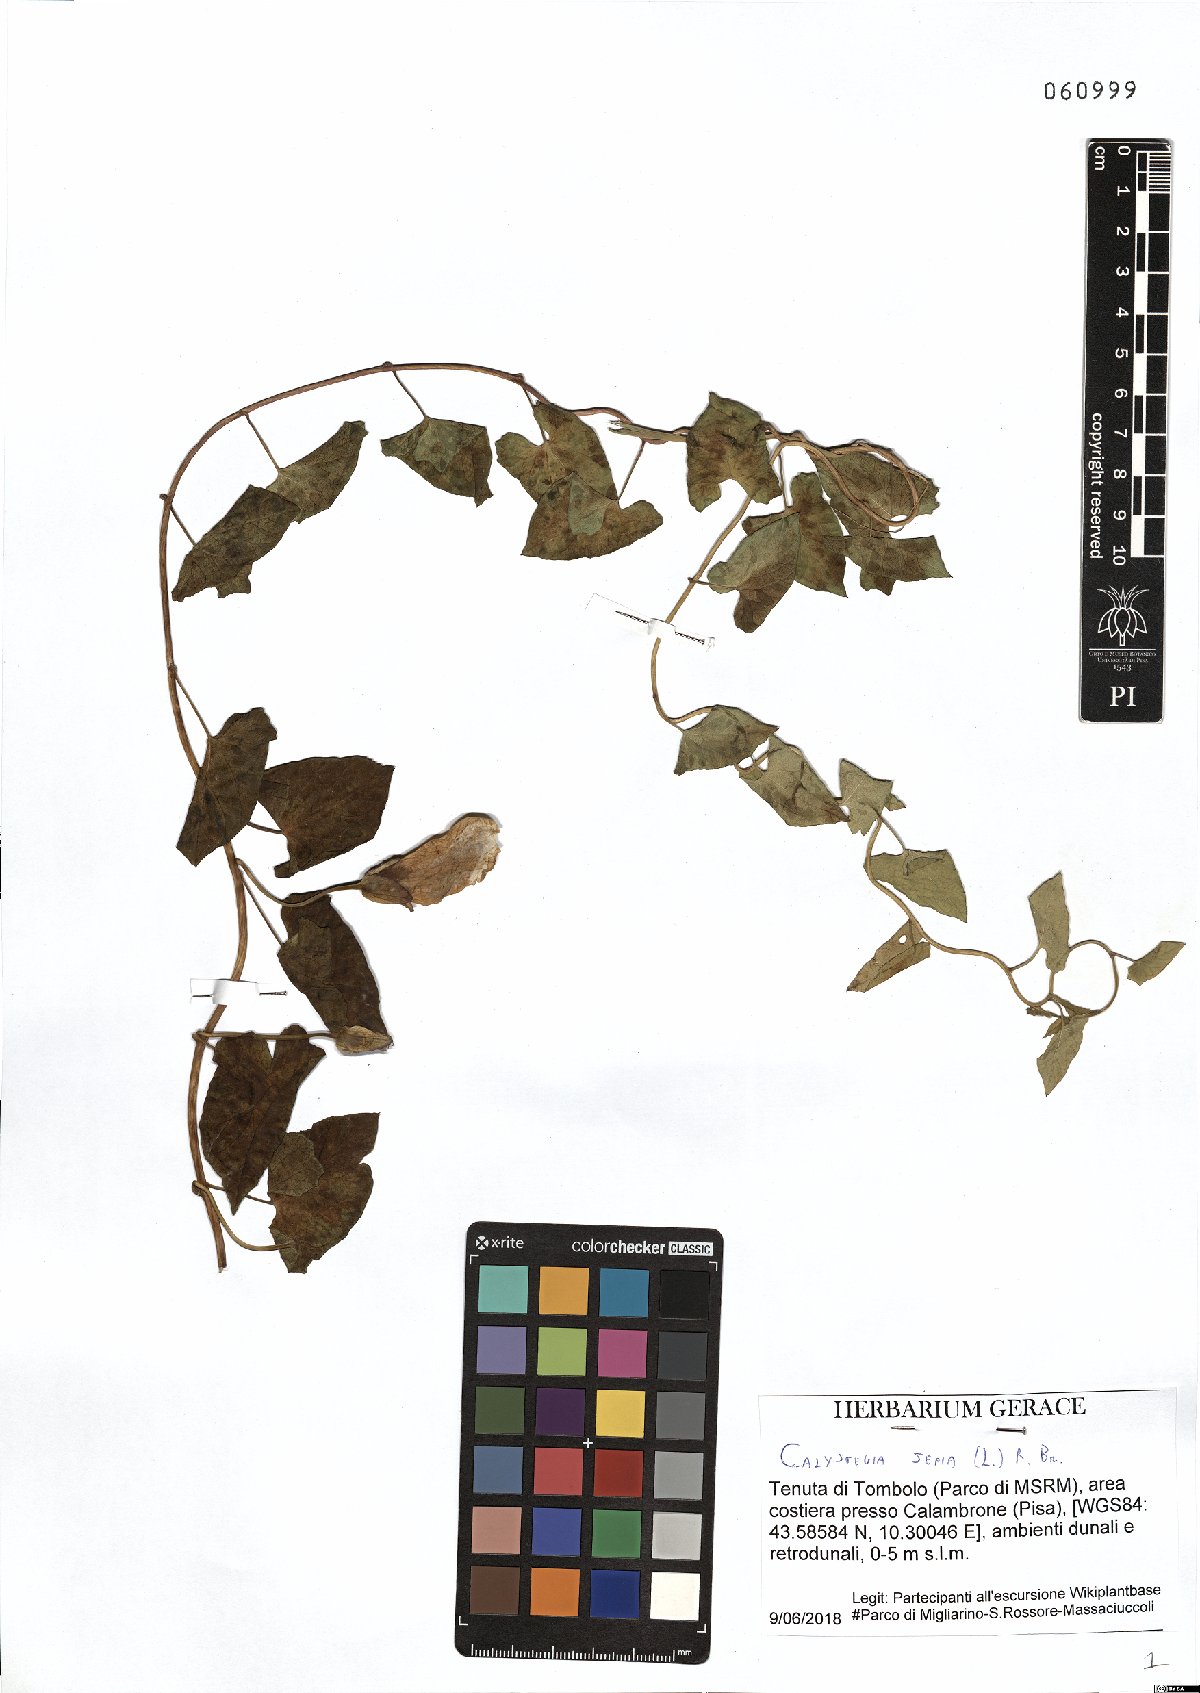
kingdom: Plantae
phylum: Tracheophyta
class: Magnoliopsida
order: Solanales
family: Convolvulaceae
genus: Calystegia
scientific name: Calystegia sepium
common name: Hedge bindweed
